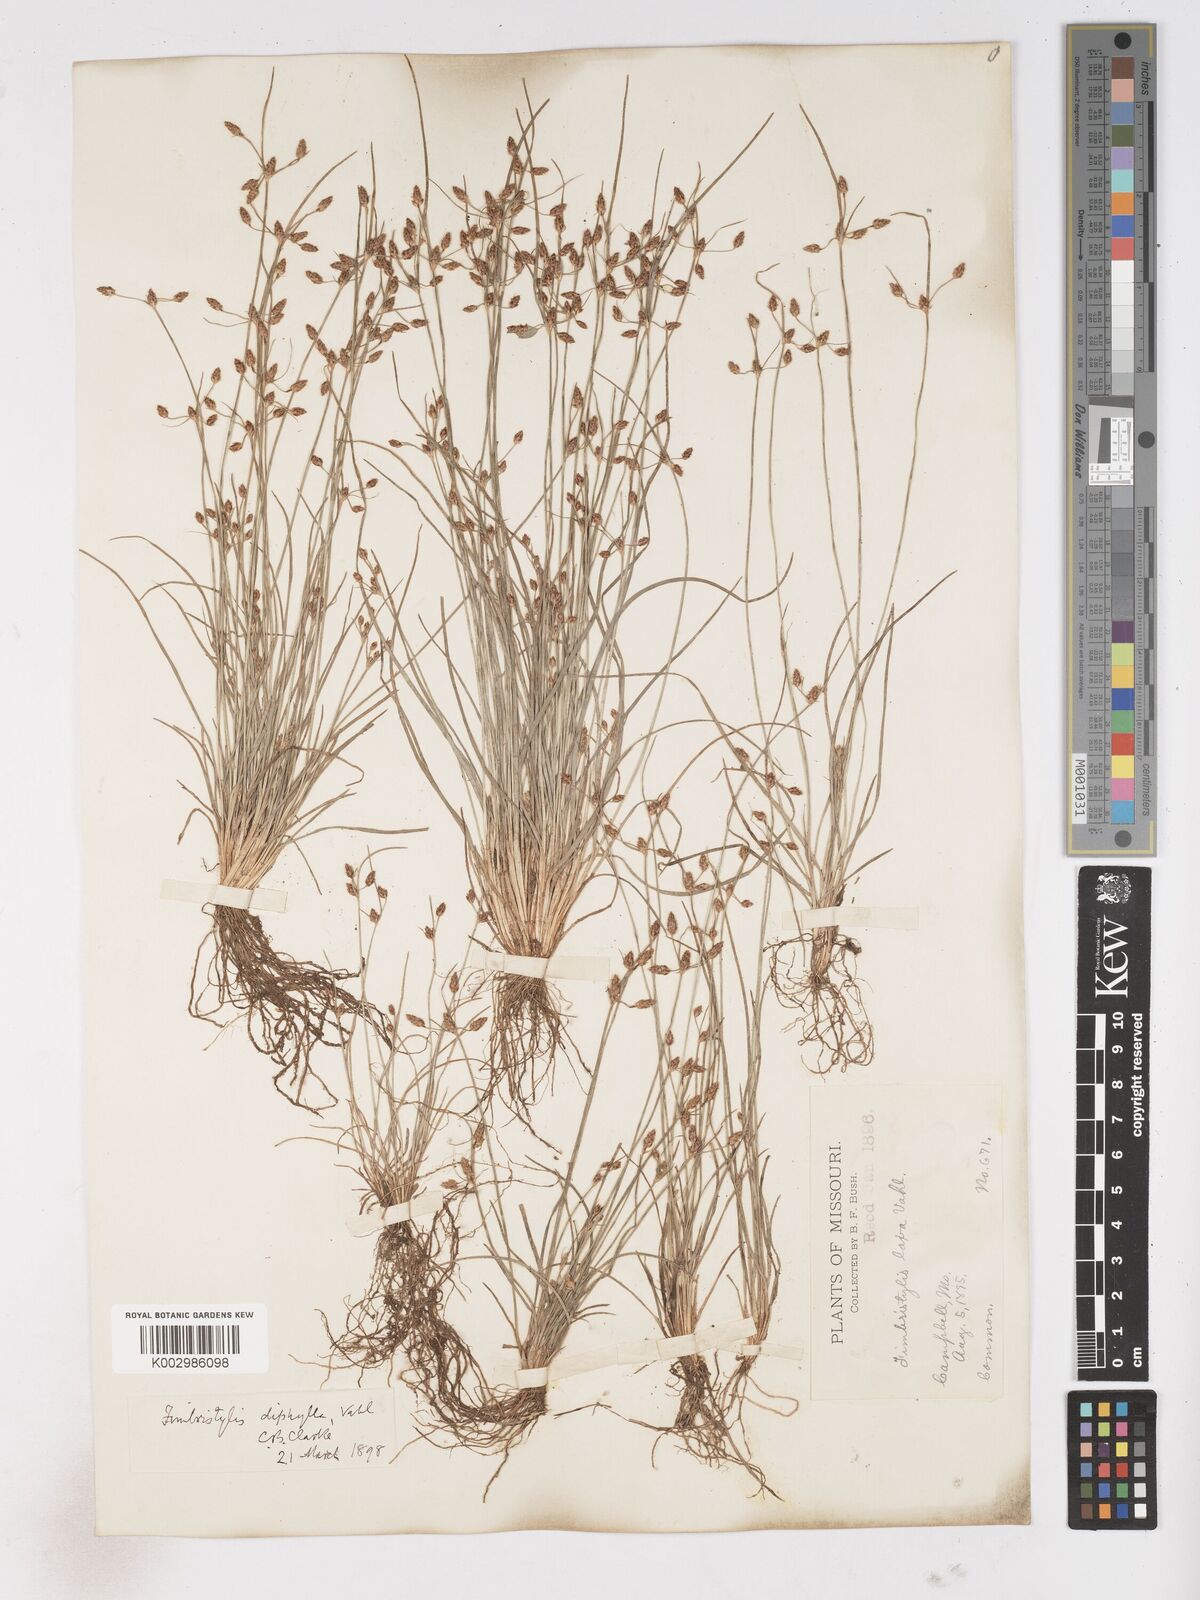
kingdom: Plantae
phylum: Tracheophyta
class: Liliopsida
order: Poales
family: Cyperaceae
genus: Fimbristylis
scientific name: Fimbristylis dichotoma
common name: Forked fimbry
